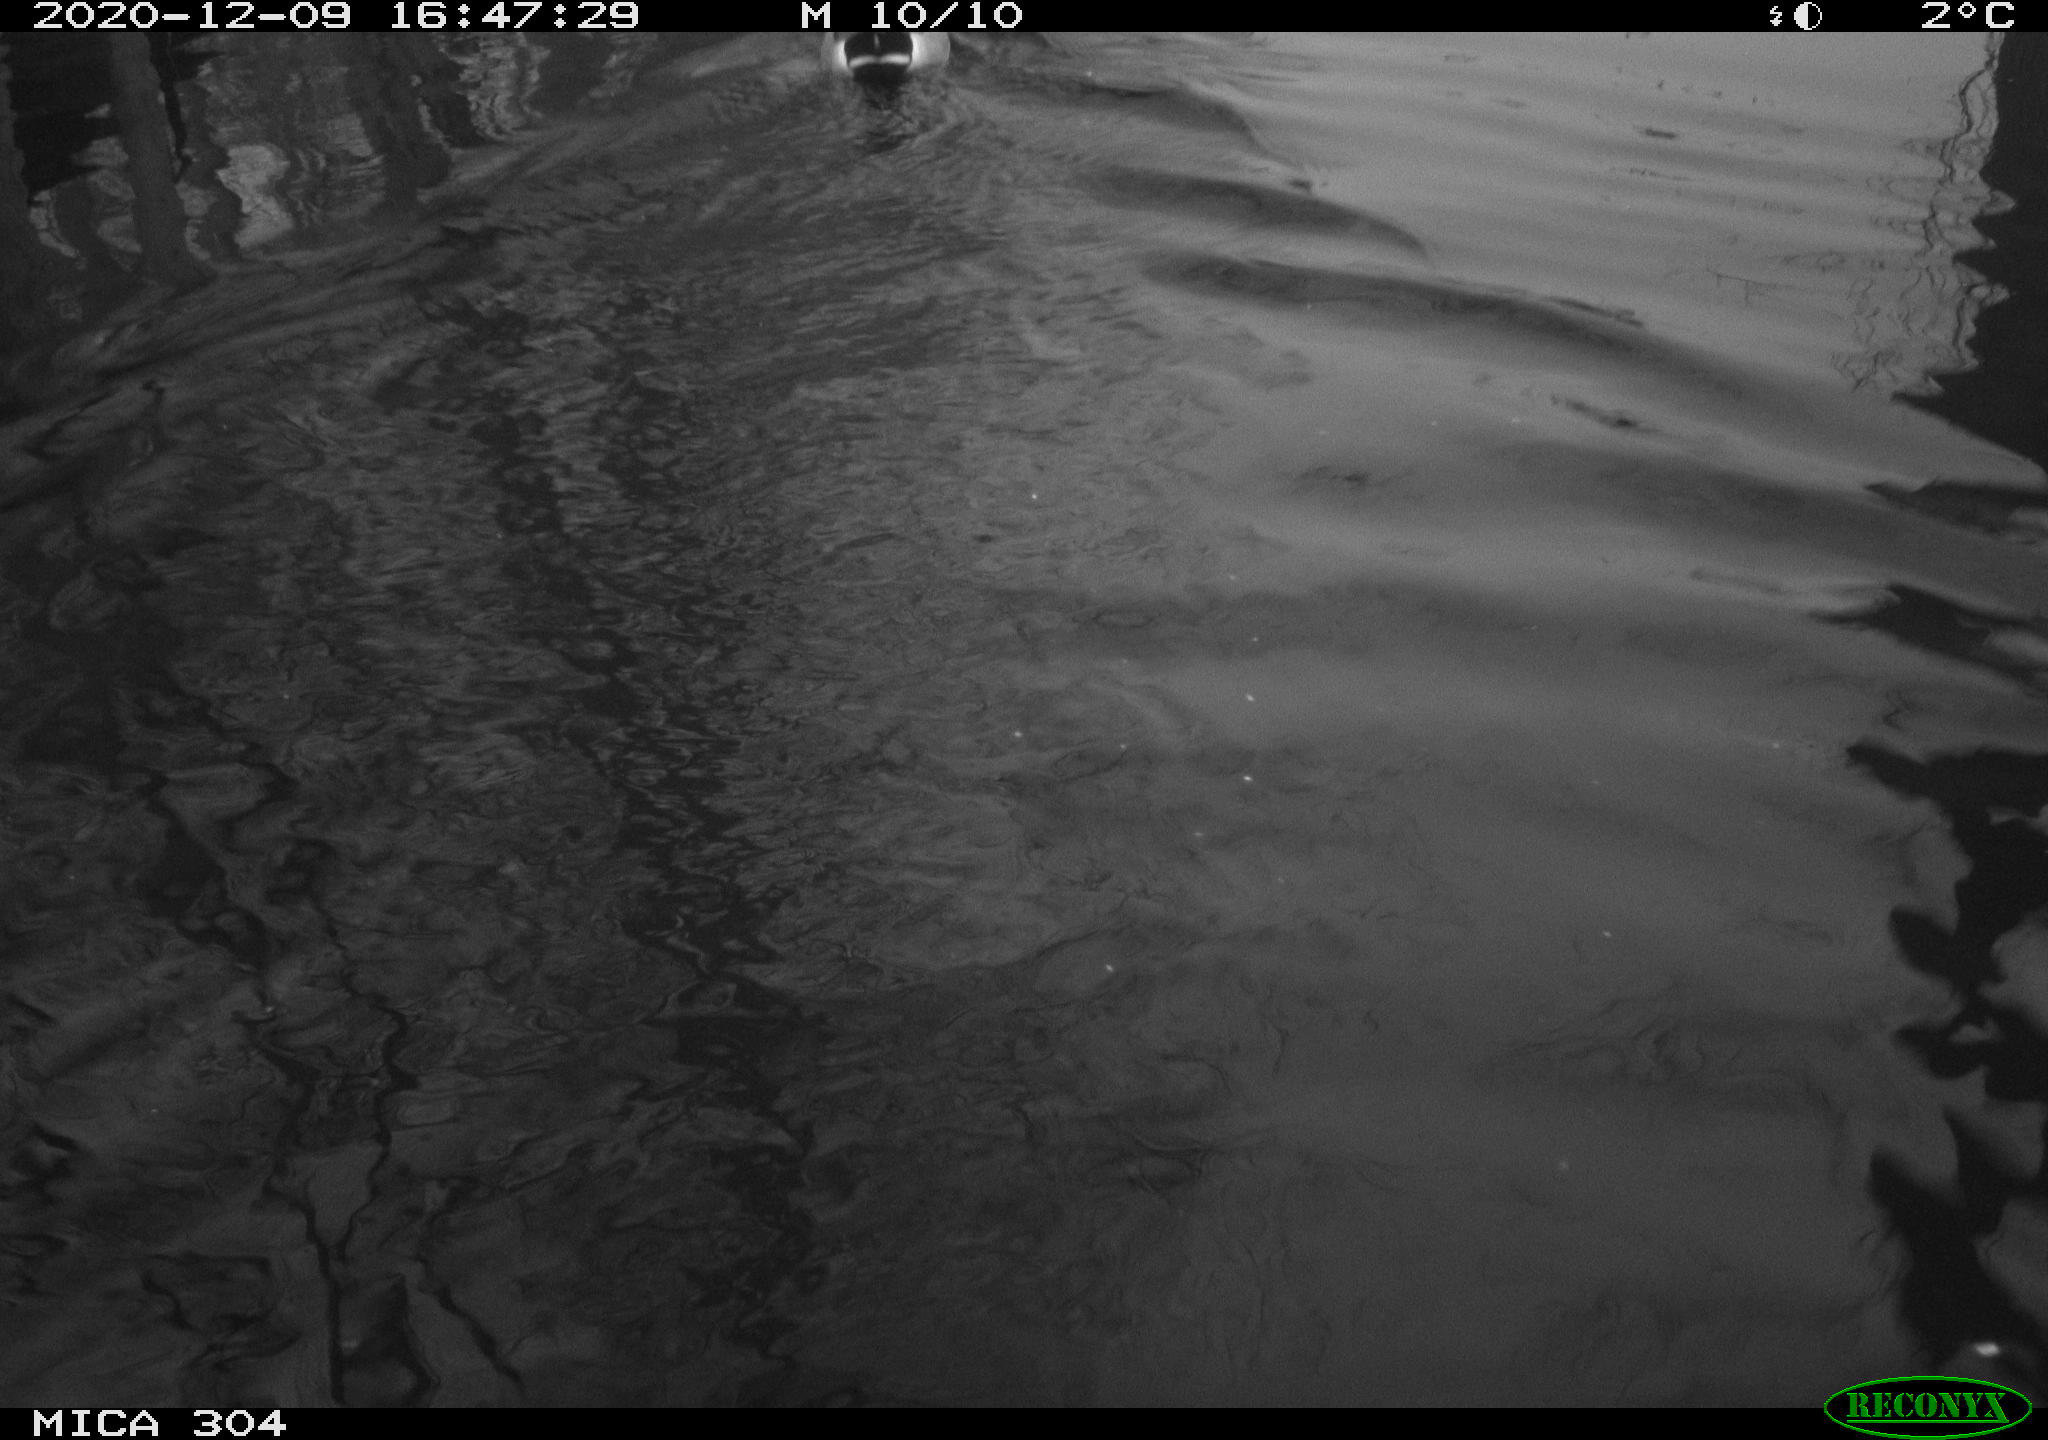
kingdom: Animalia
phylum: Chordata
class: Aves
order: Anseriformes
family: Anatidae
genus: Mareca
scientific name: Mareca strepera
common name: Gadwall
